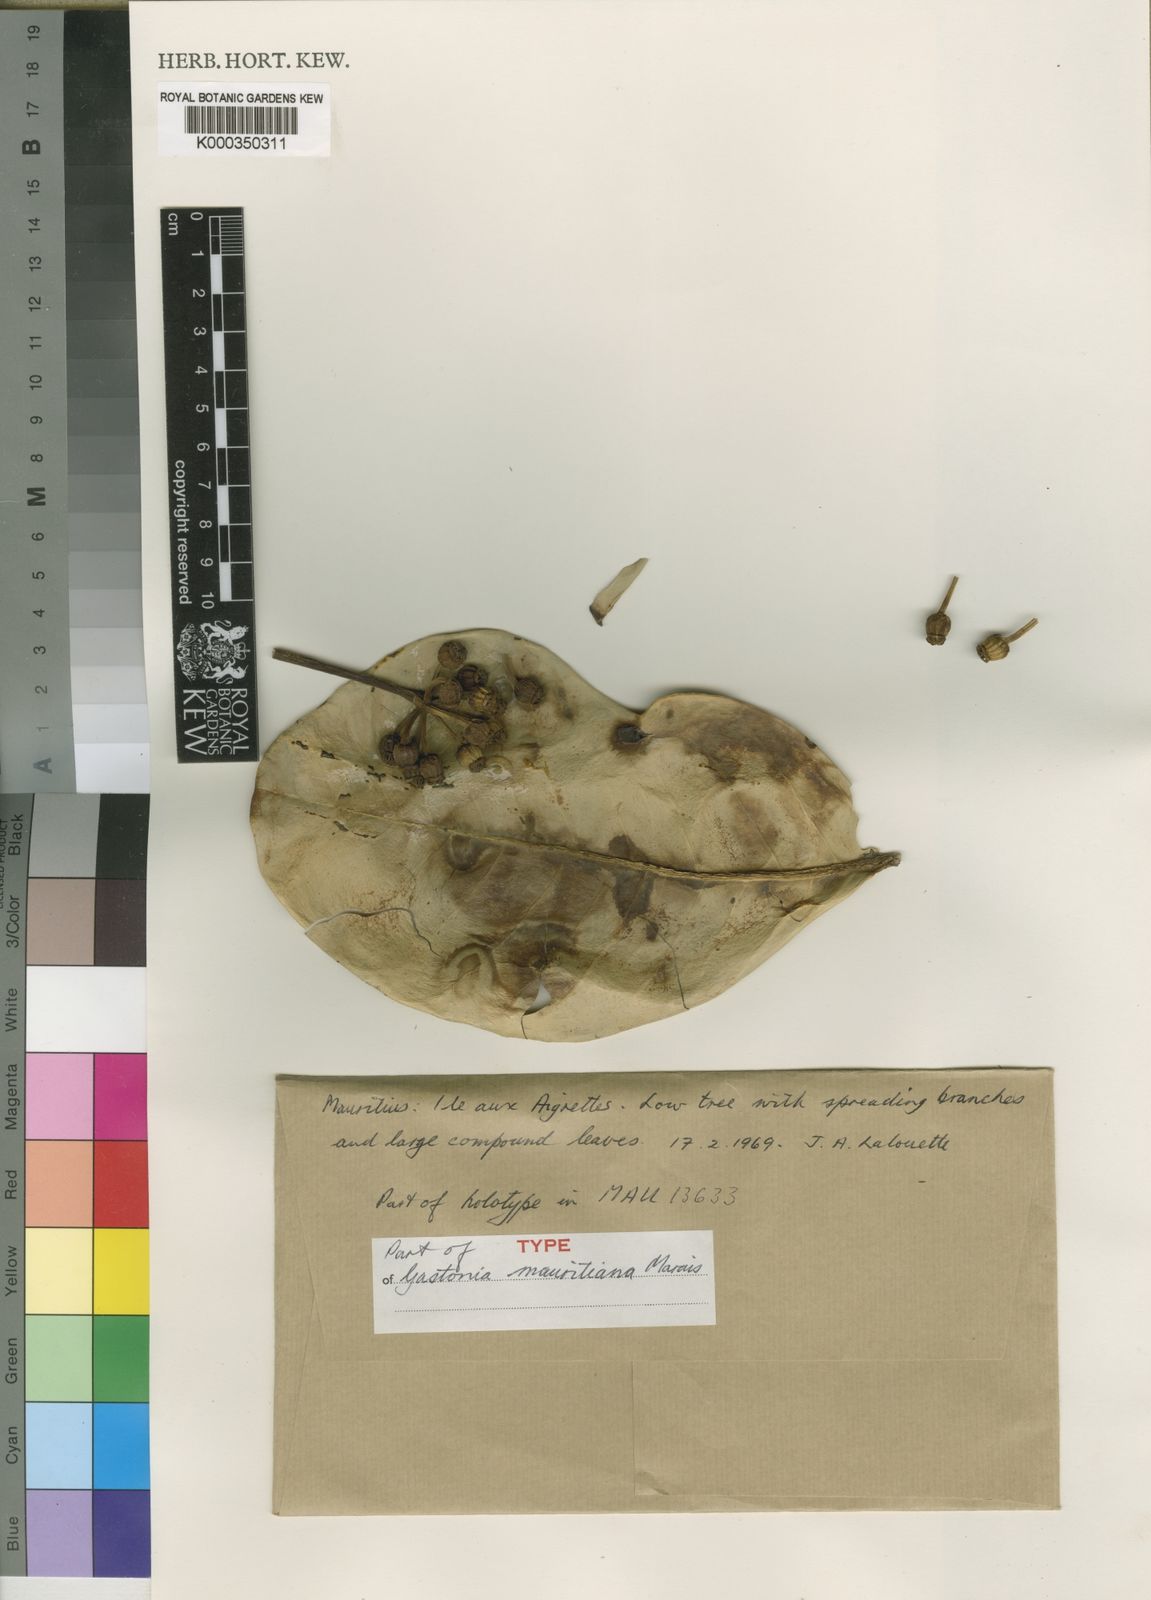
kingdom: Plantae
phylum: Tracheophyta
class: Magnoliopsida
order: Apiales
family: Araliaceae
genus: Polyscias
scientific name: Polyscias maraisiana
